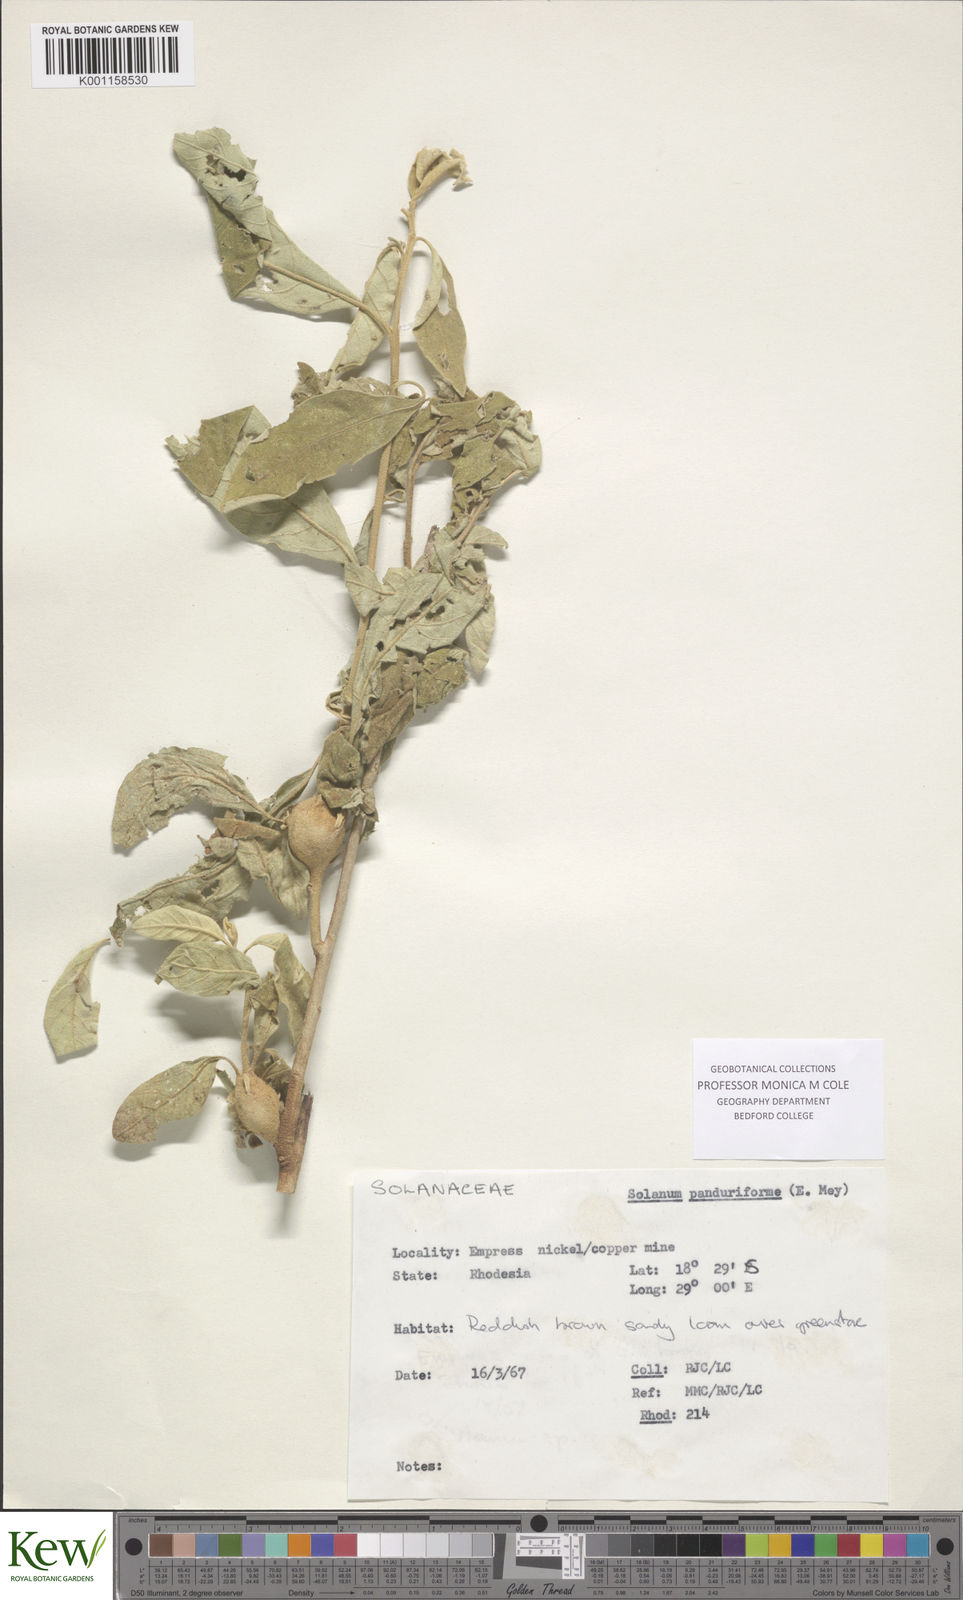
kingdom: Plantae
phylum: Tracheophyta
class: Magnoliopsida
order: Solanales
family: Solanaceae
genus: Solanum
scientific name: Solanum campylacanthum
